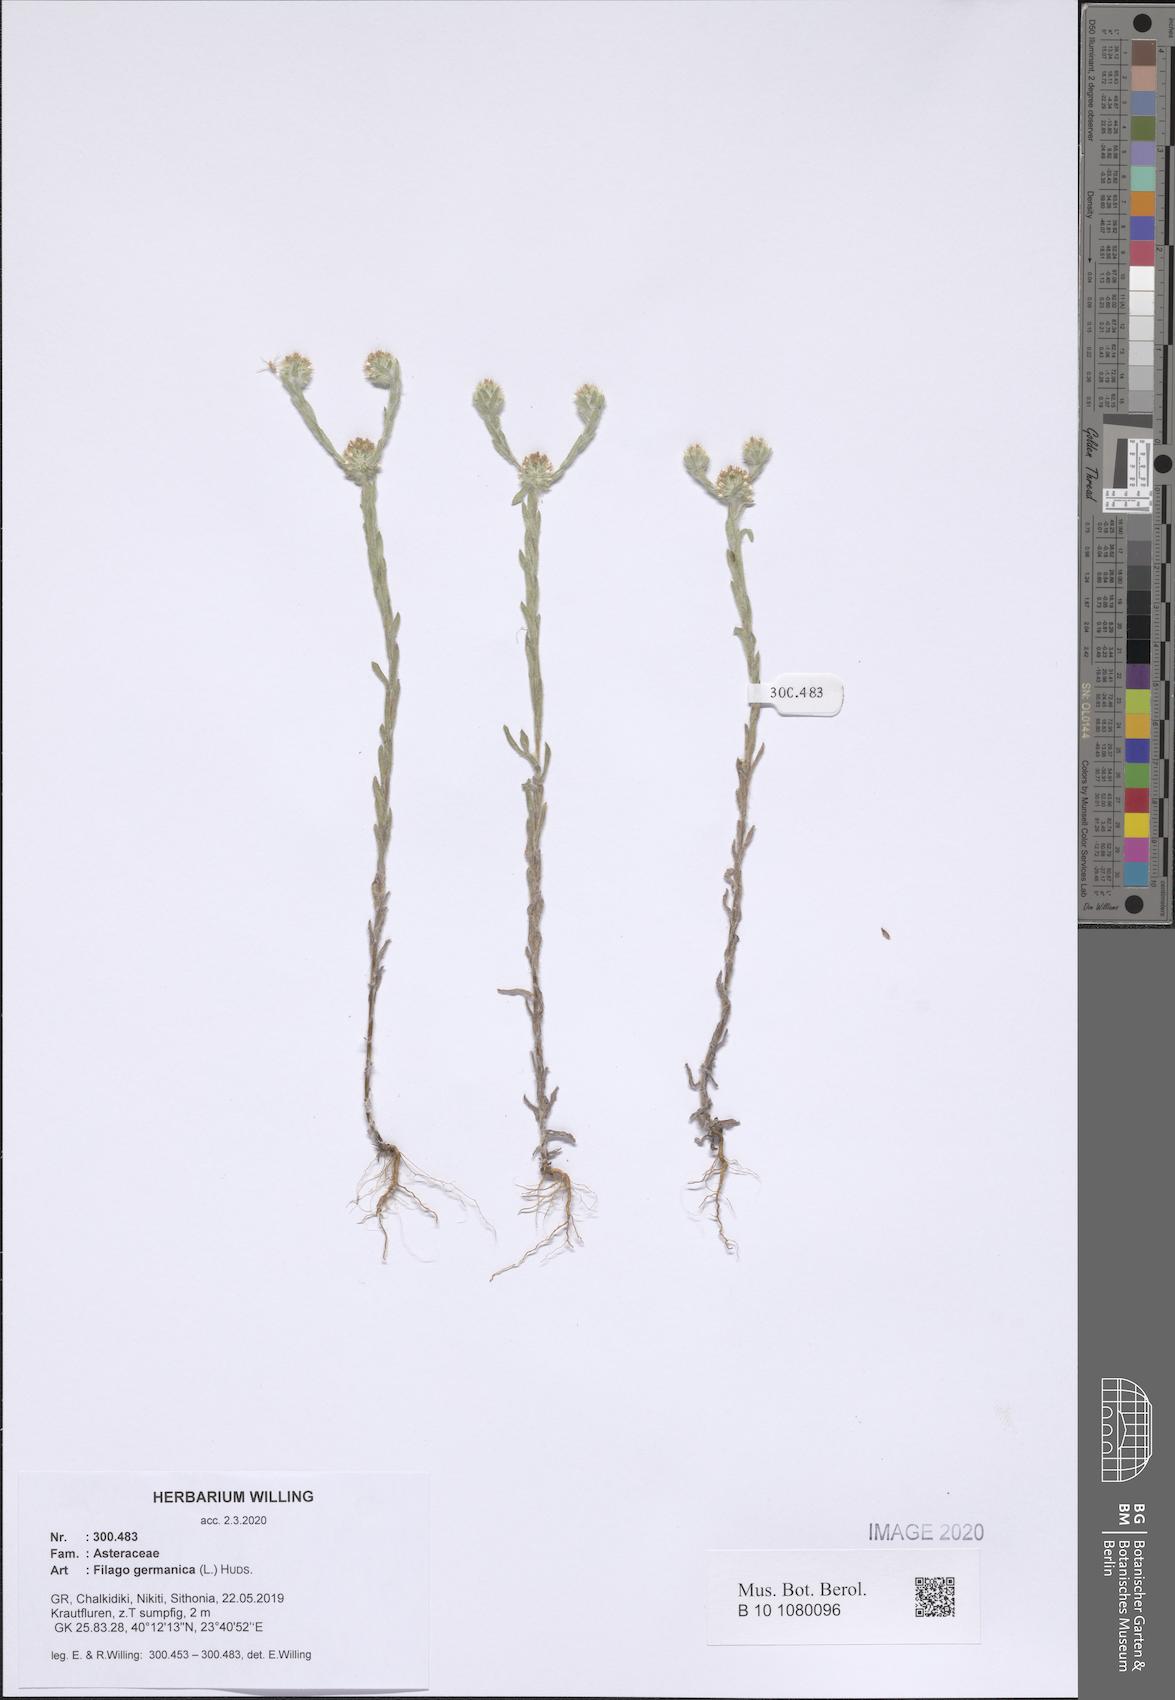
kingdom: Plantae
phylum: Tracheophyta
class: Magnoliopsida
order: Asterales
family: Asteraceae
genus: Filago
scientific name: Filago germanica
